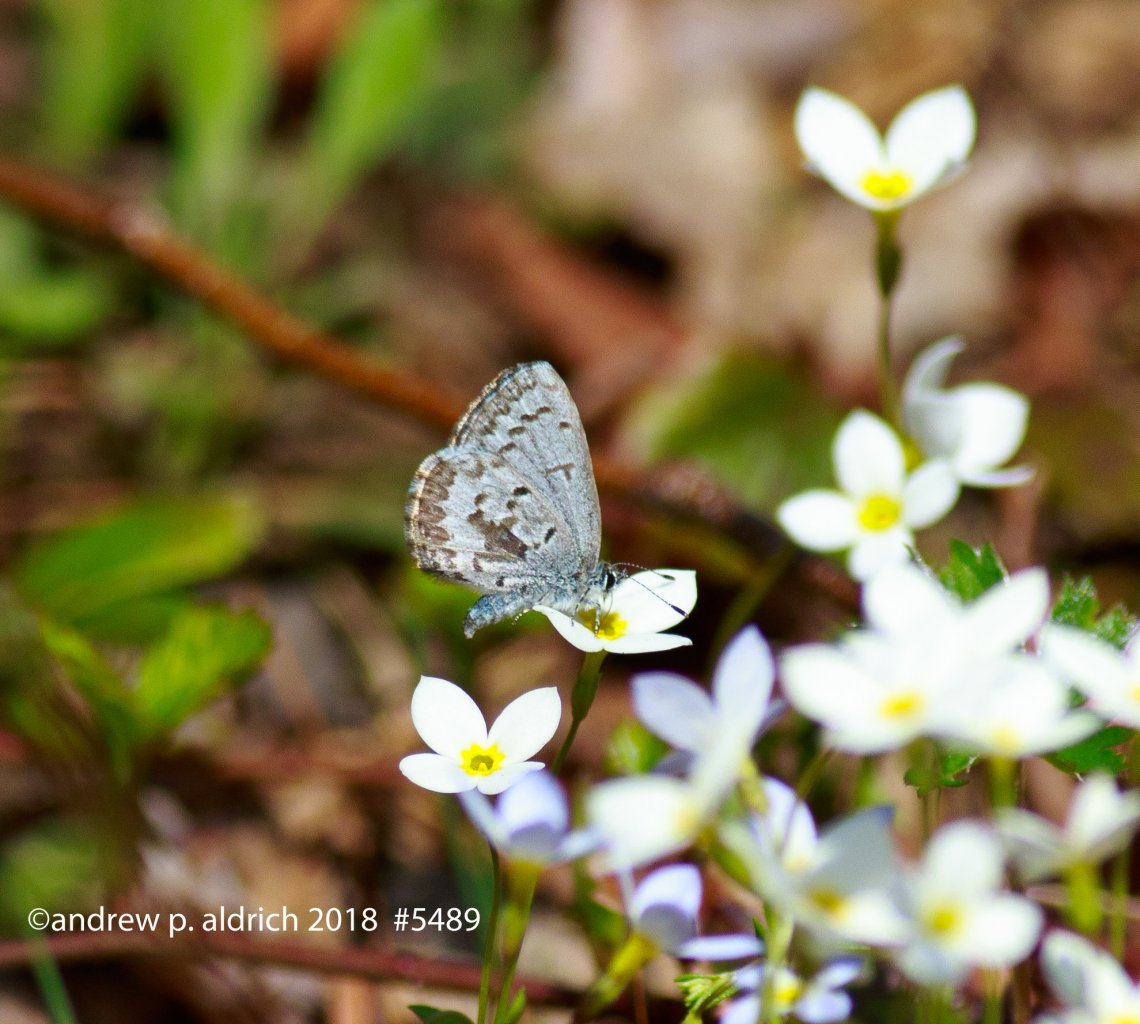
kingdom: Animalia
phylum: Arthropoda
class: Insecta
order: Lepidoptera
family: Lycaenidae
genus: Celastrina
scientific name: Celastrina lucia
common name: Northern Spring Azure
